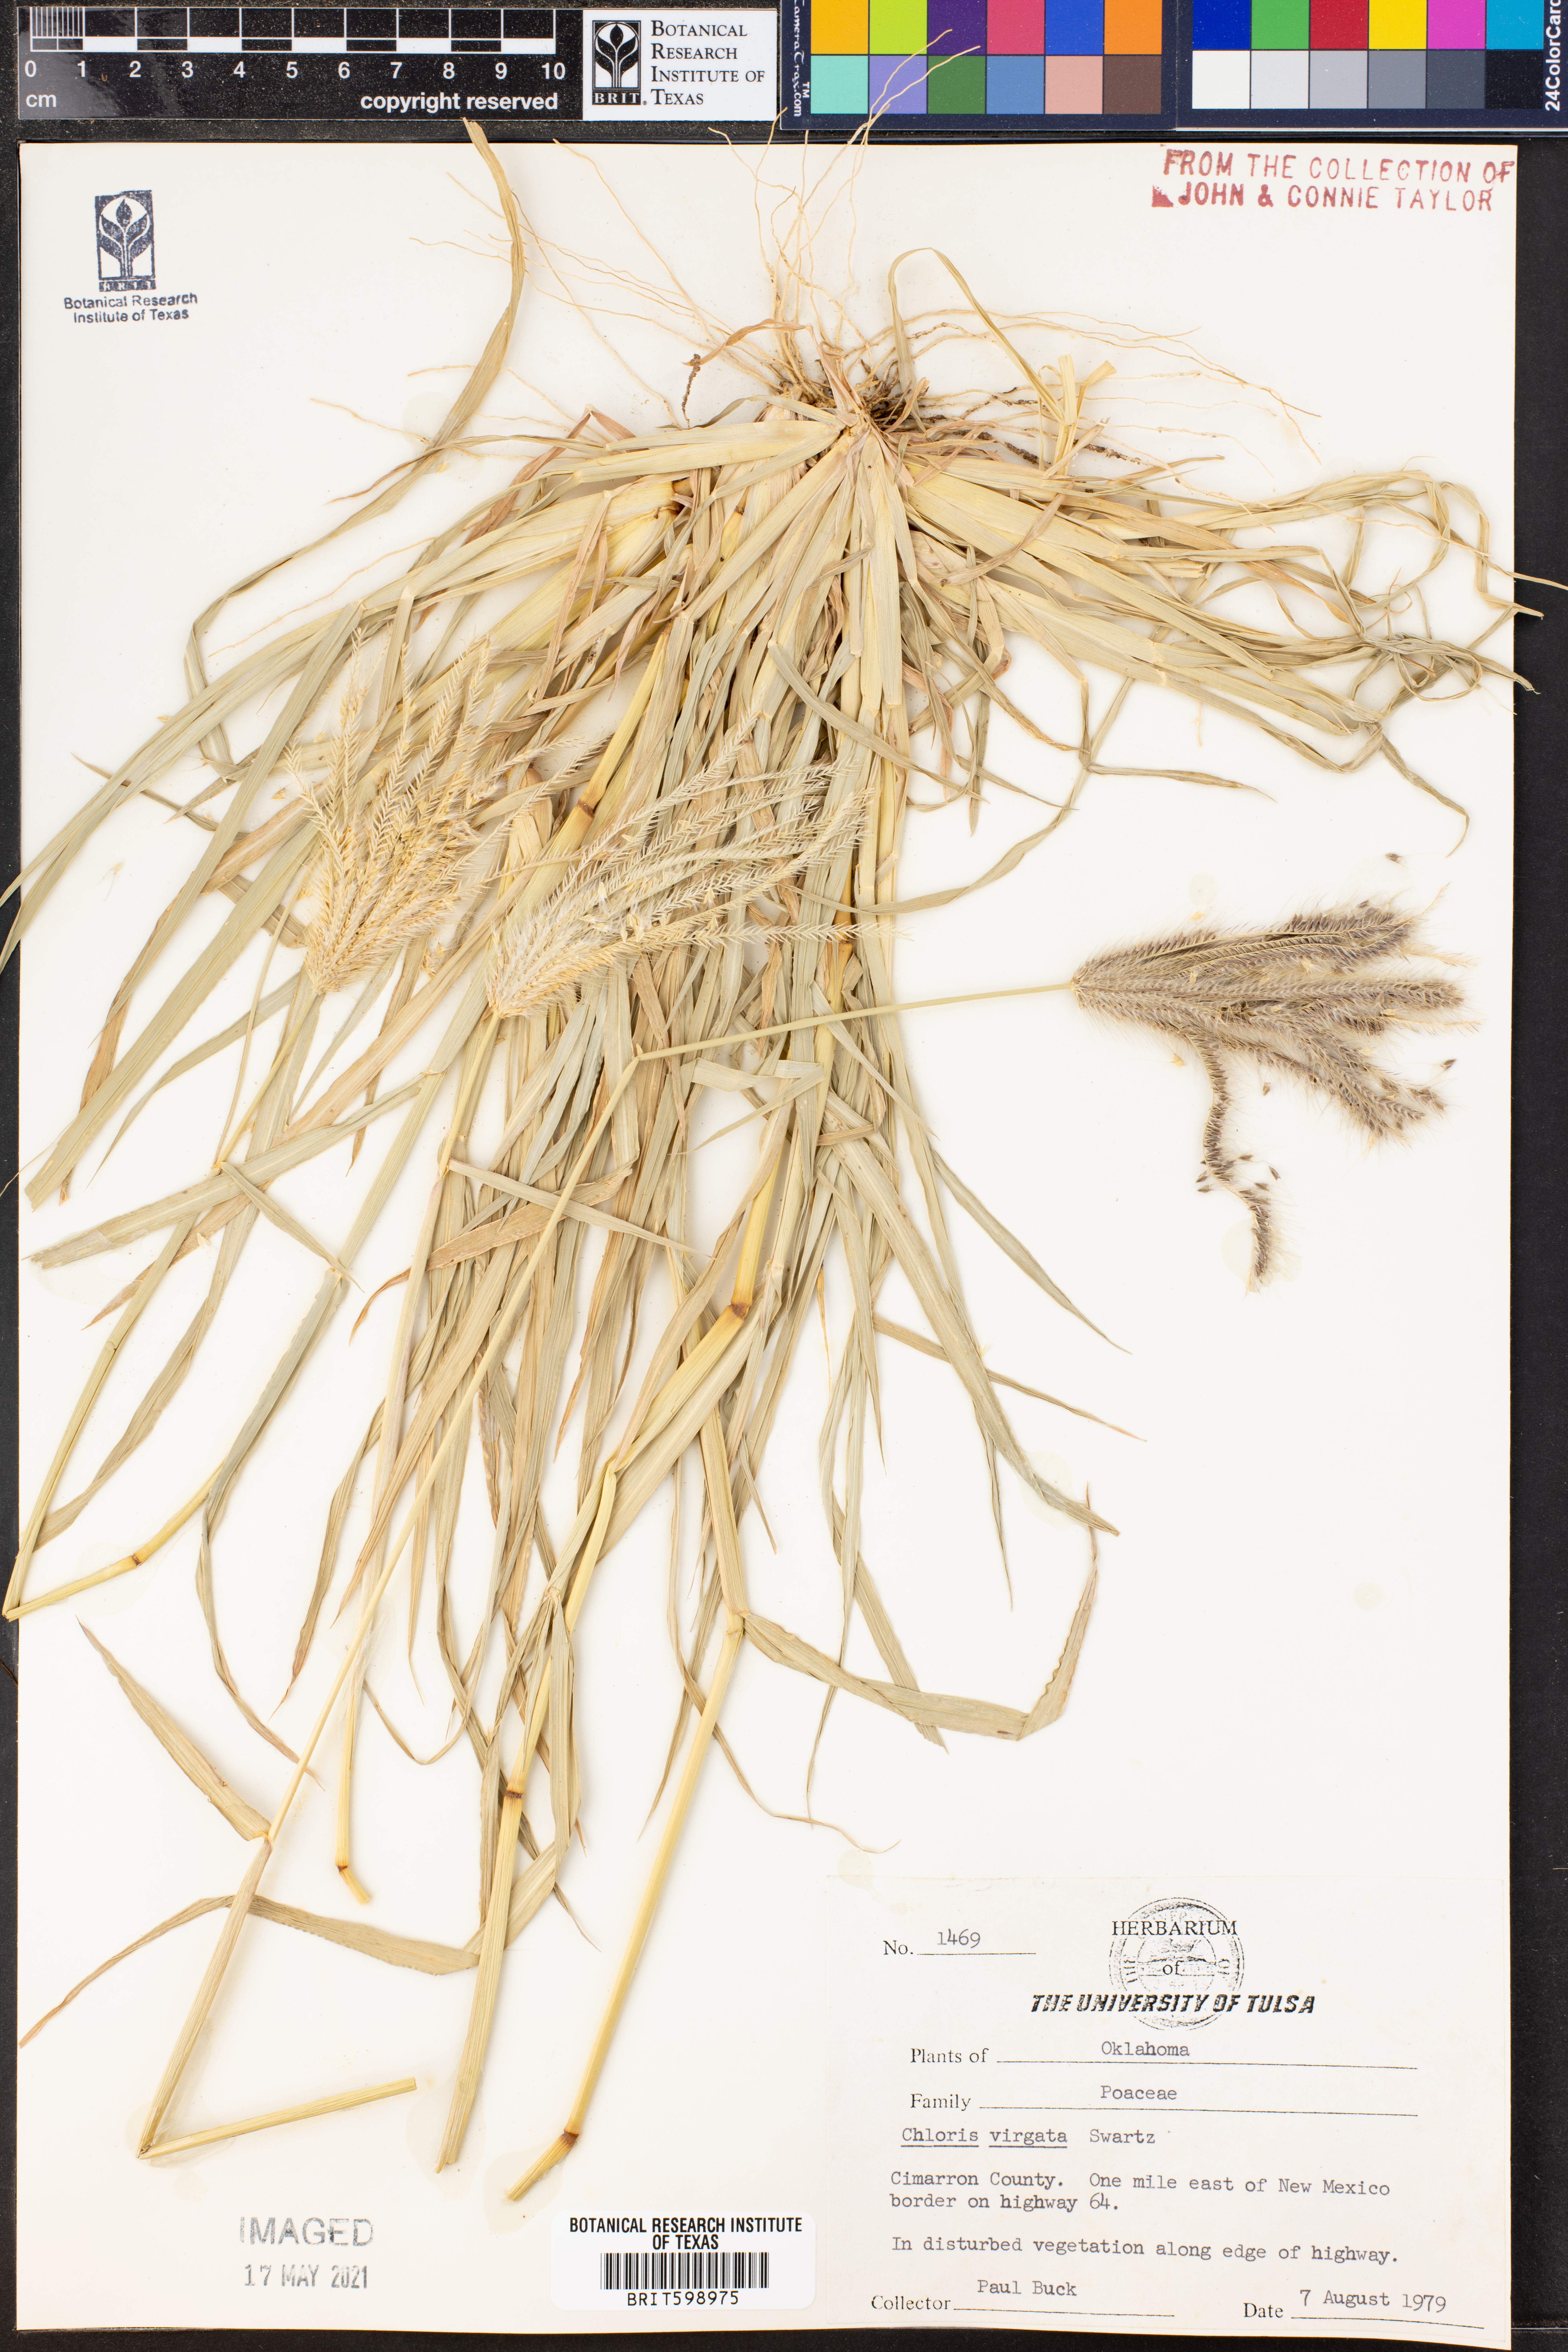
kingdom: Plantae
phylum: Tracheophyta
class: Liliopsida
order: Poales
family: Poaceae
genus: Chloris
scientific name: Chloris virgata
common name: Feathery rhodes-grass
